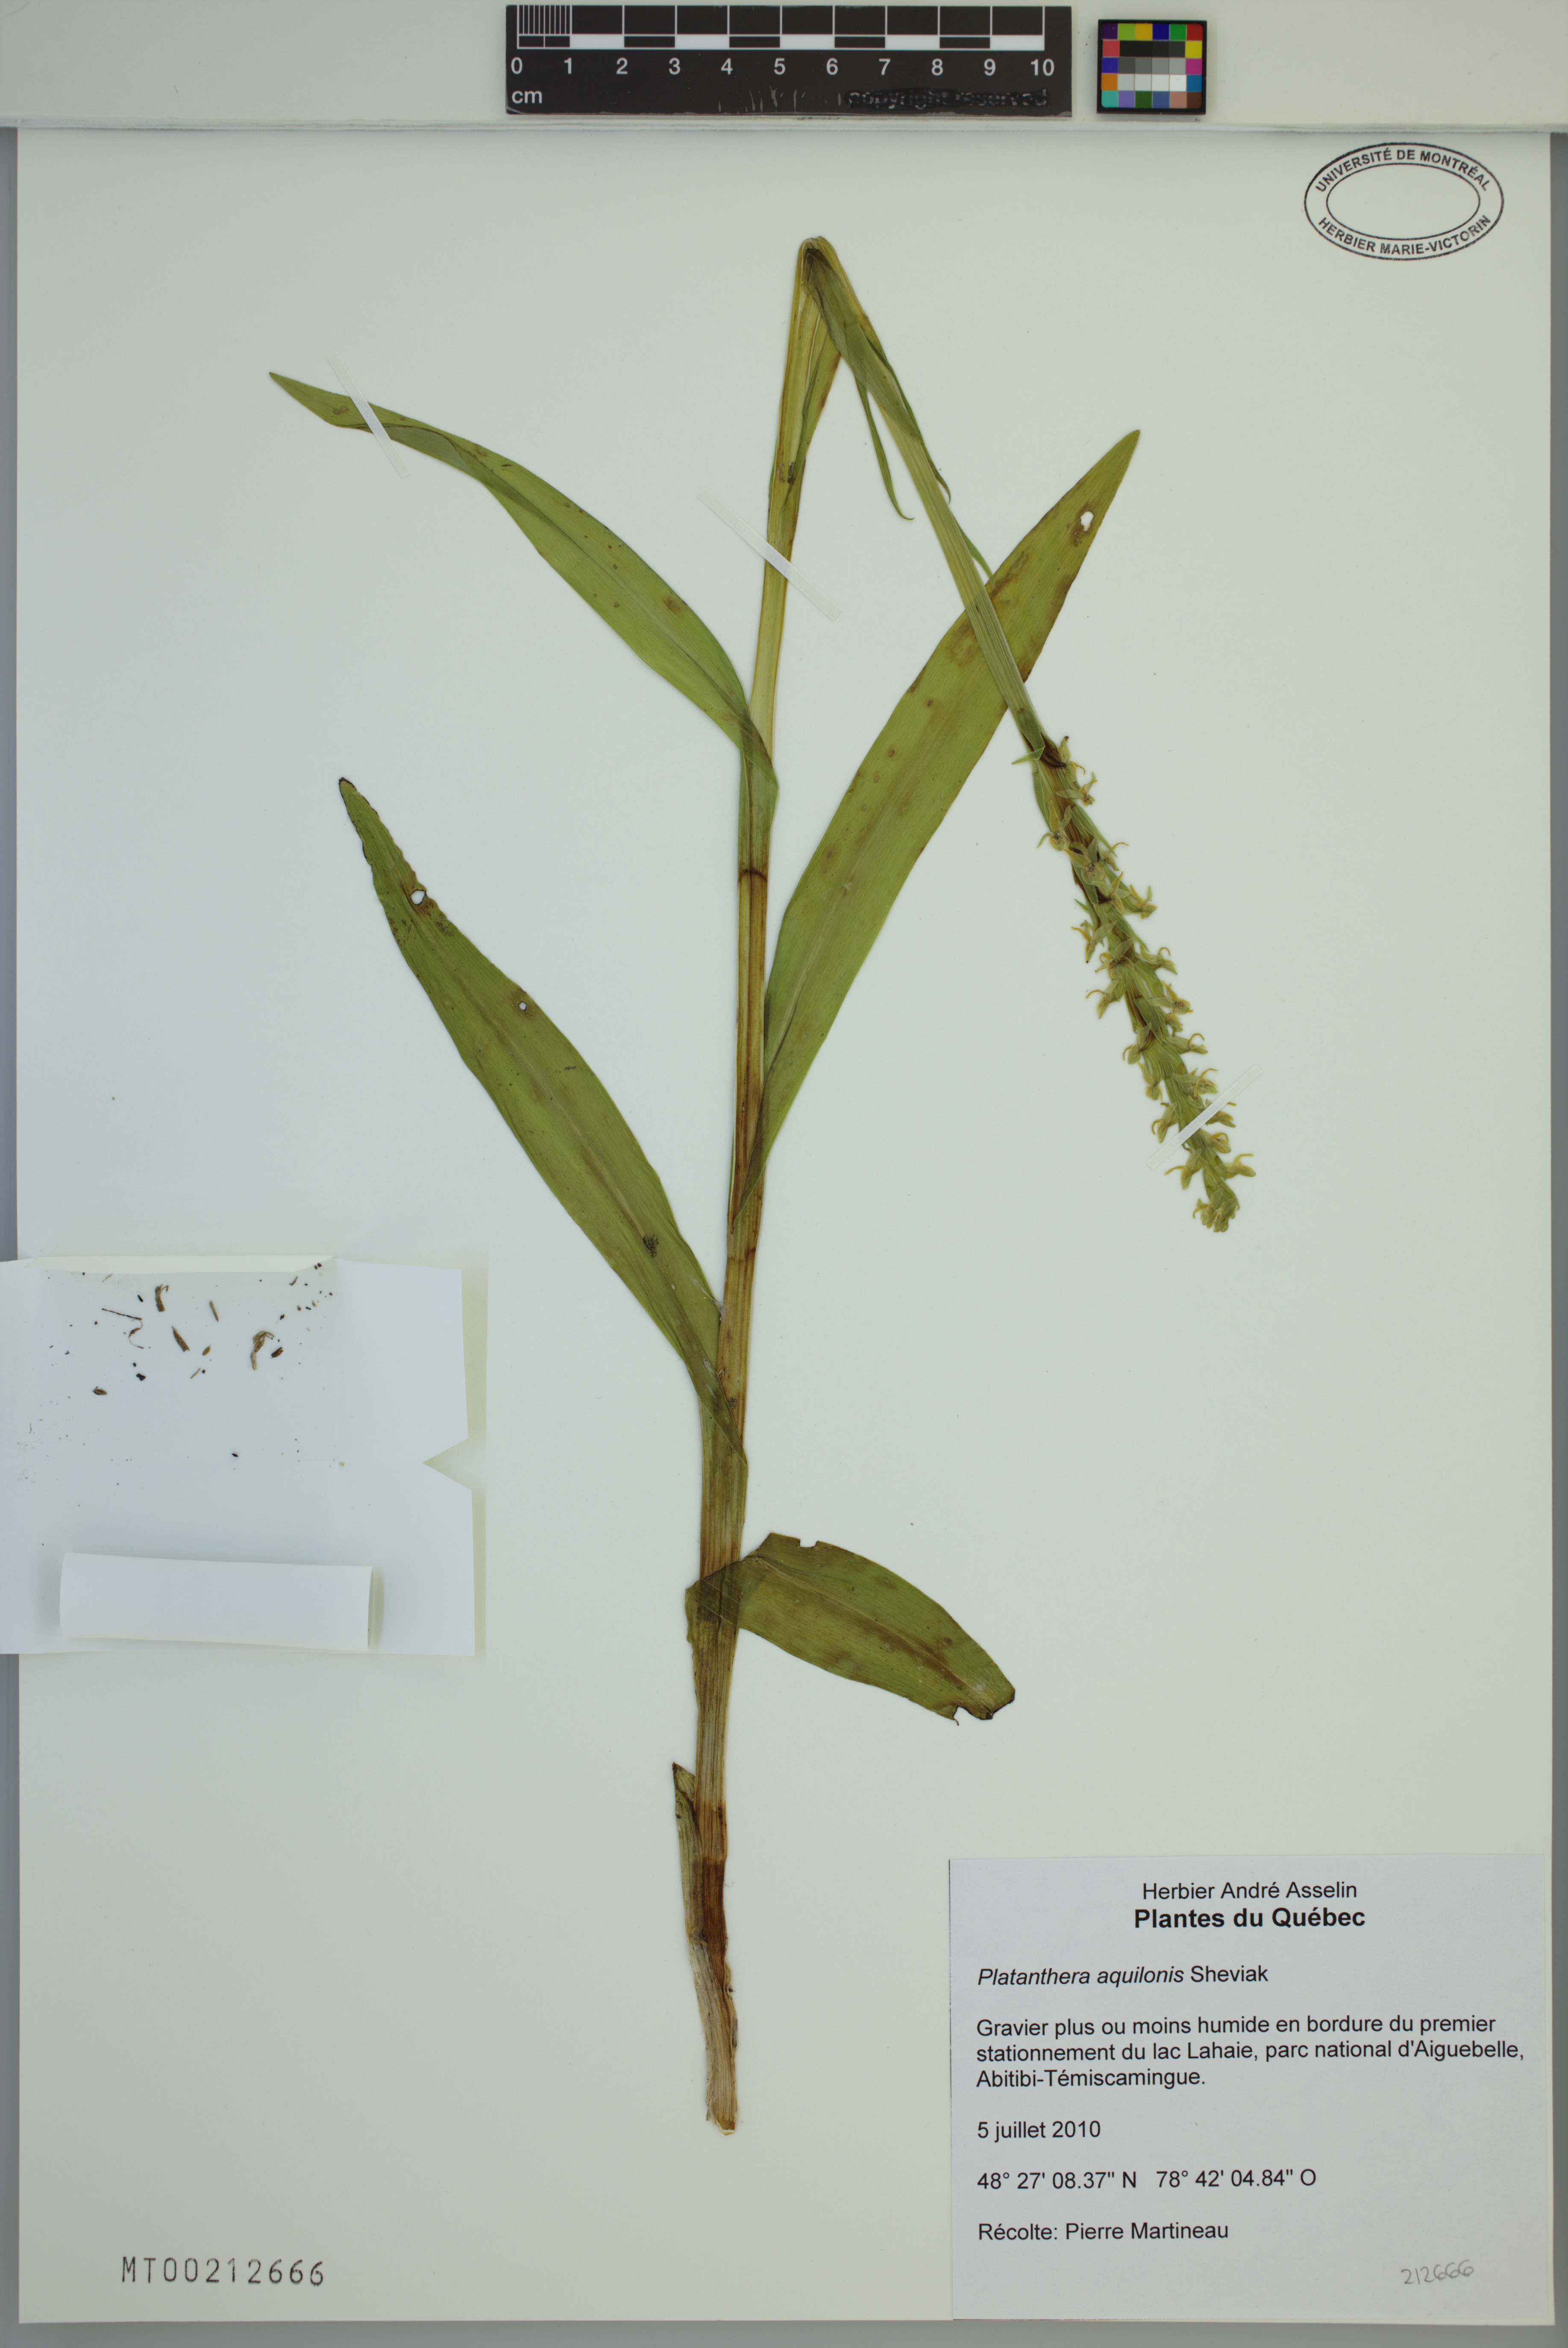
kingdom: Plantae
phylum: Tracheophyta
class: Liliopsida
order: Asparagales
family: Orchidaceae
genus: Platanthera
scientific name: Platanthera aquilonis
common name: Northern green orchid
